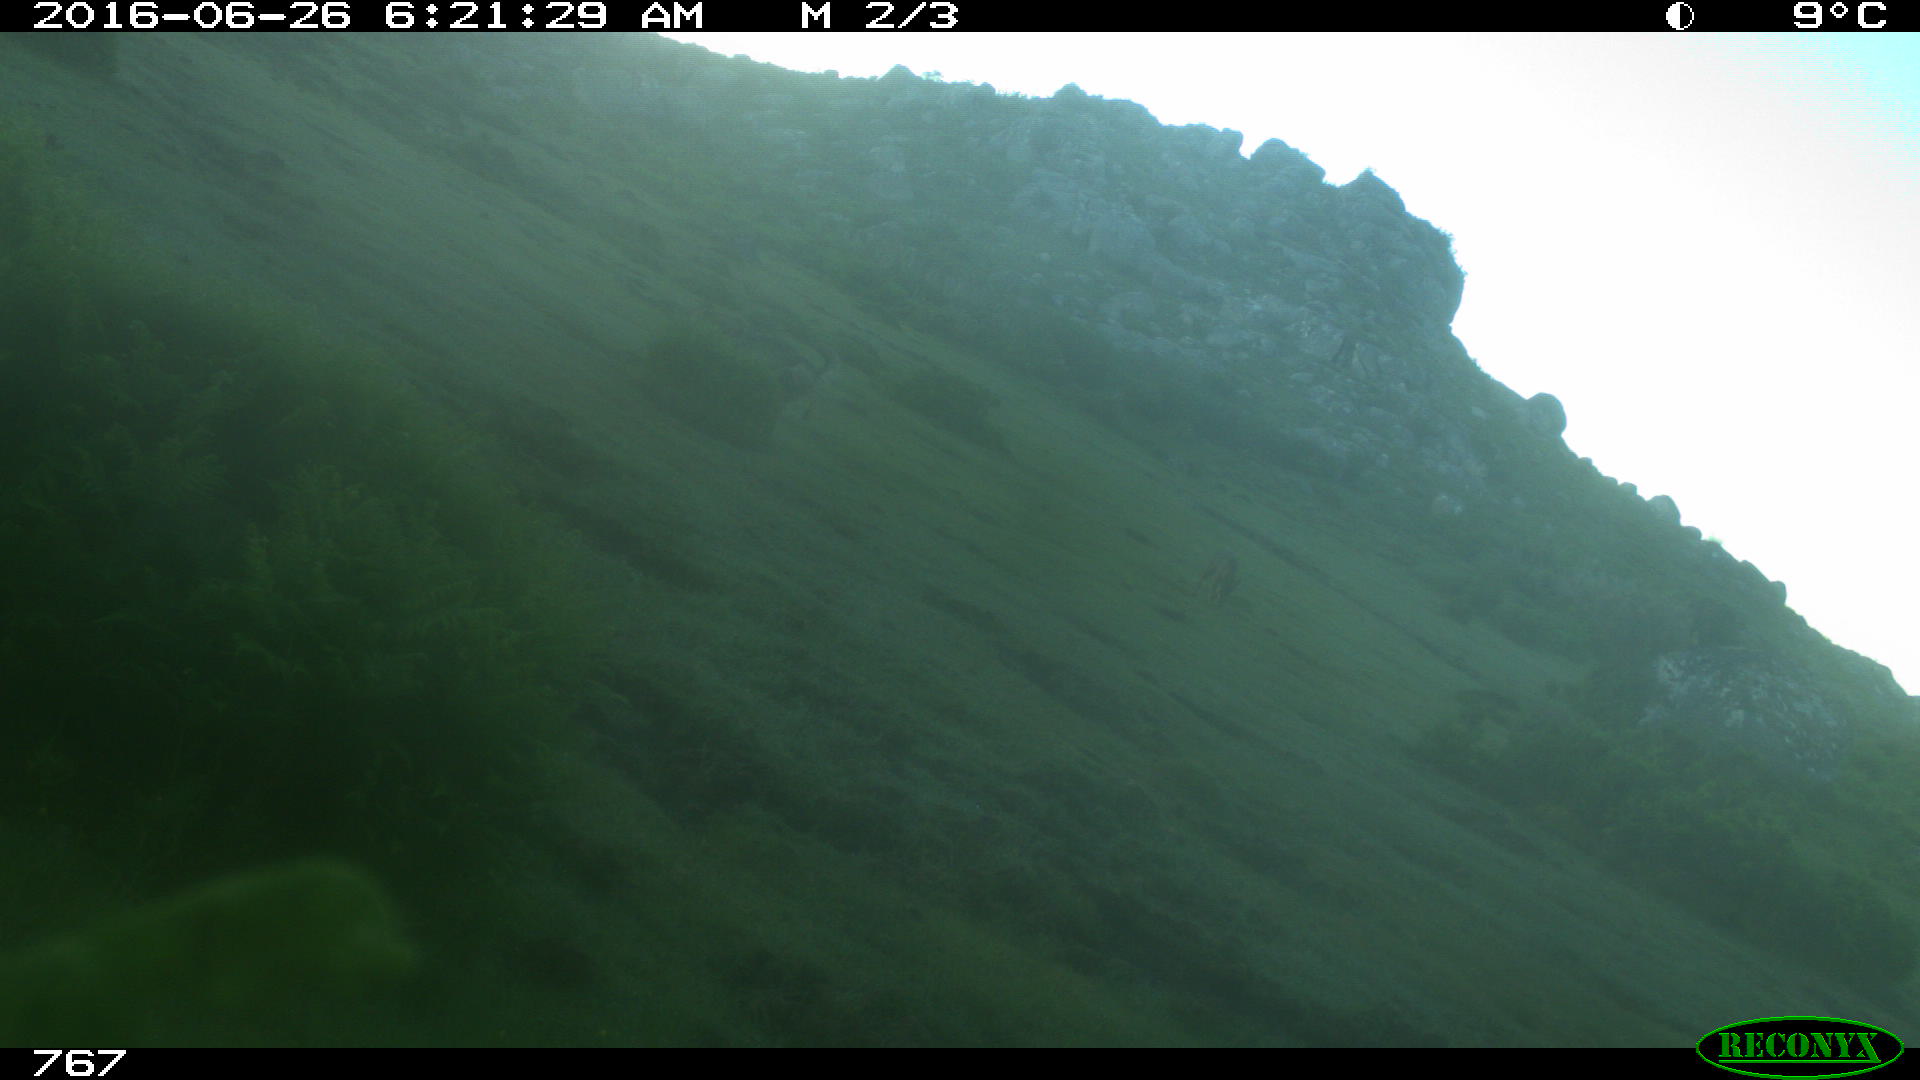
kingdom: Animalia
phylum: Chordata
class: Mammalia
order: Carnivora
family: Canidae
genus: Canis
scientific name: Canis lupus
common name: Gray wolf
